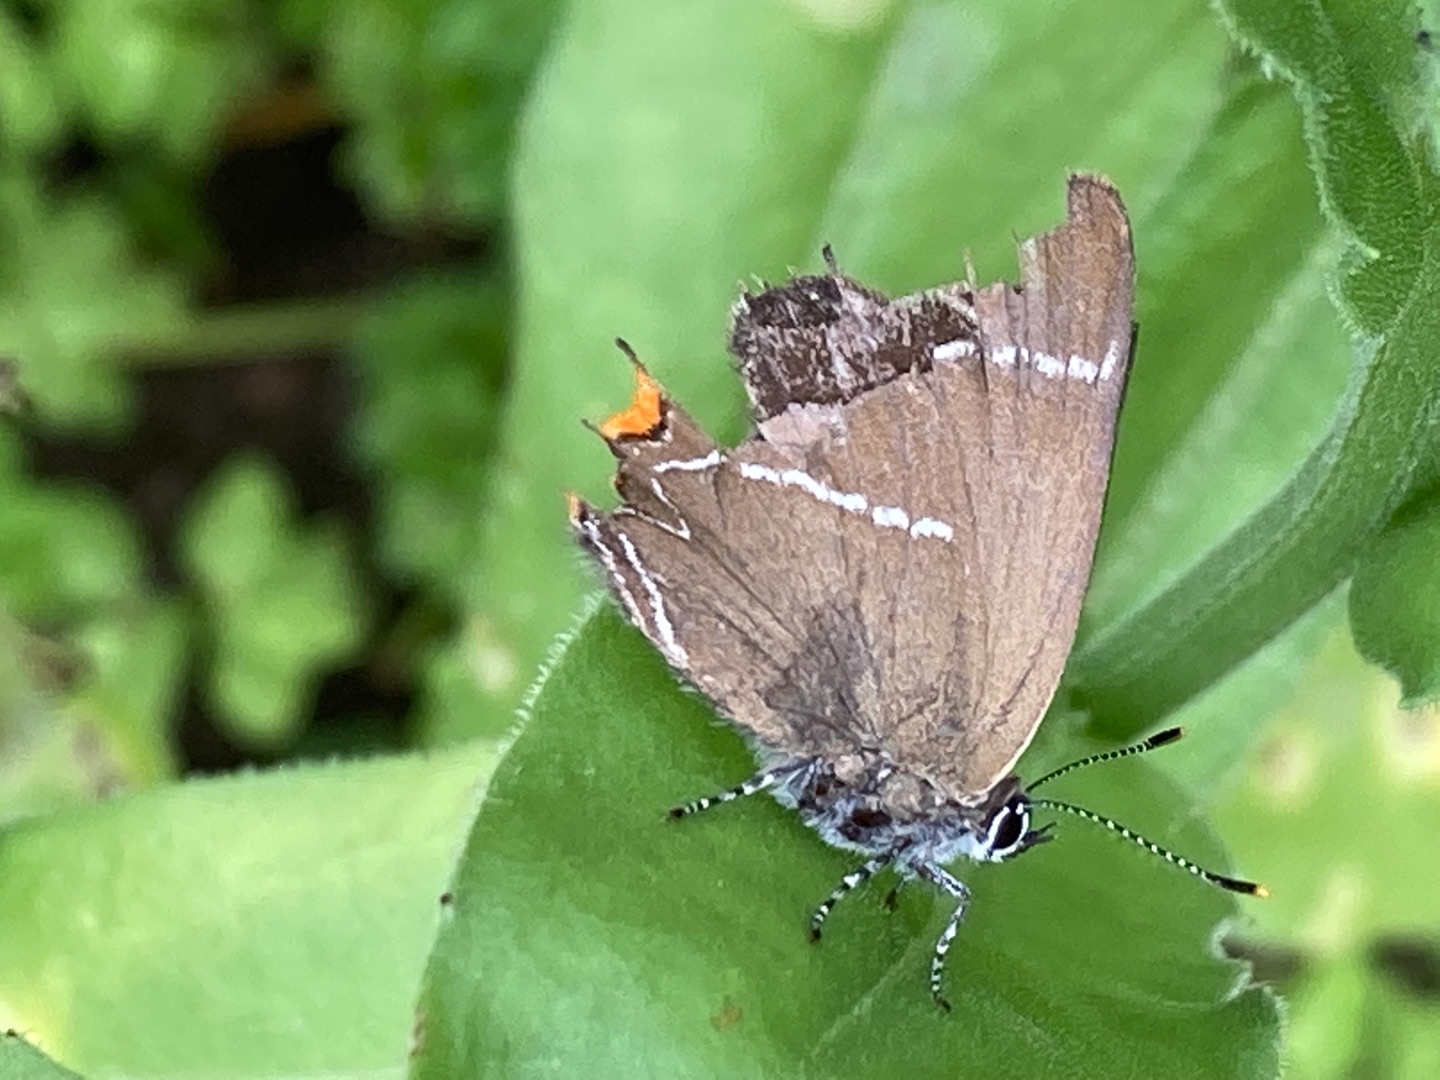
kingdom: Animalia
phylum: Arthropoda
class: Insecta
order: Lepidoptera
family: Lycaenidae
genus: Satyrium
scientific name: Satyrium w-album
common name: Det hvide W
